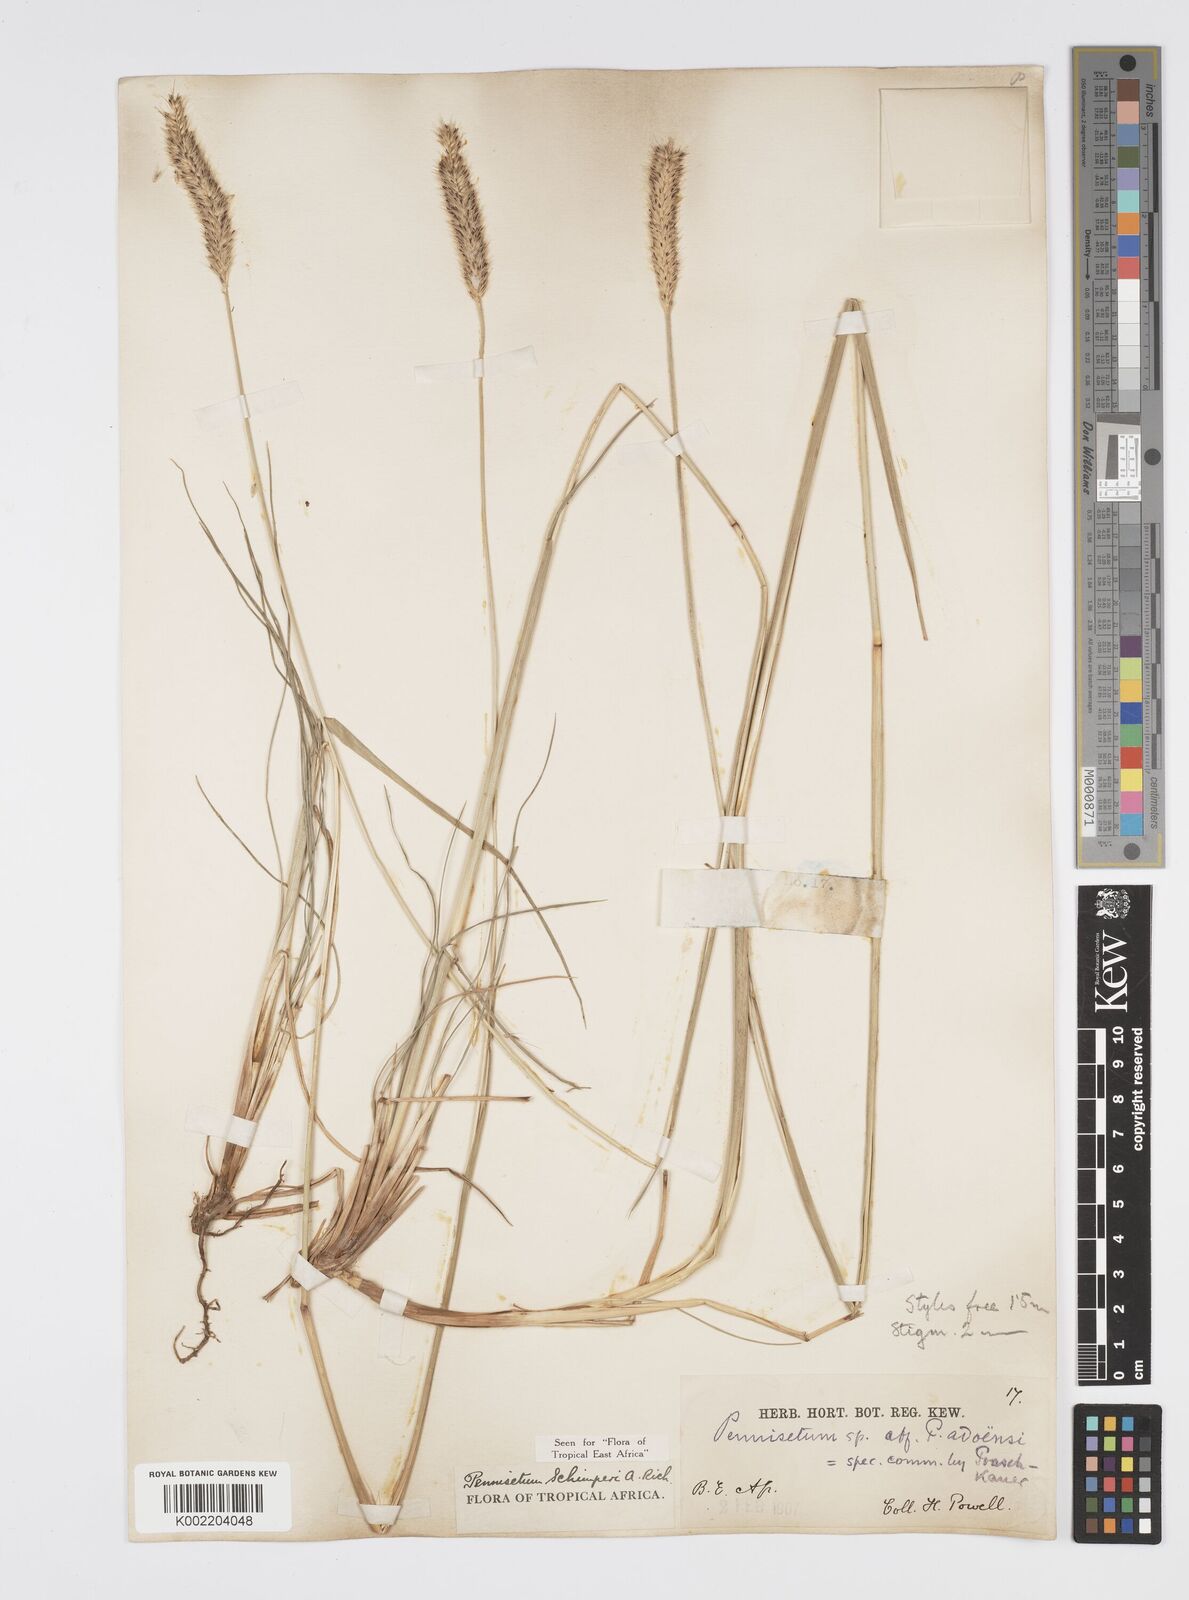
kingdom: Plantae
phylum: Tracheophyta
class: Liliopsida
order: Poales
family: Poaceae
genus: Cenchrus
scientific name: Cenchrus sphacelatus
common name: Bulgras
